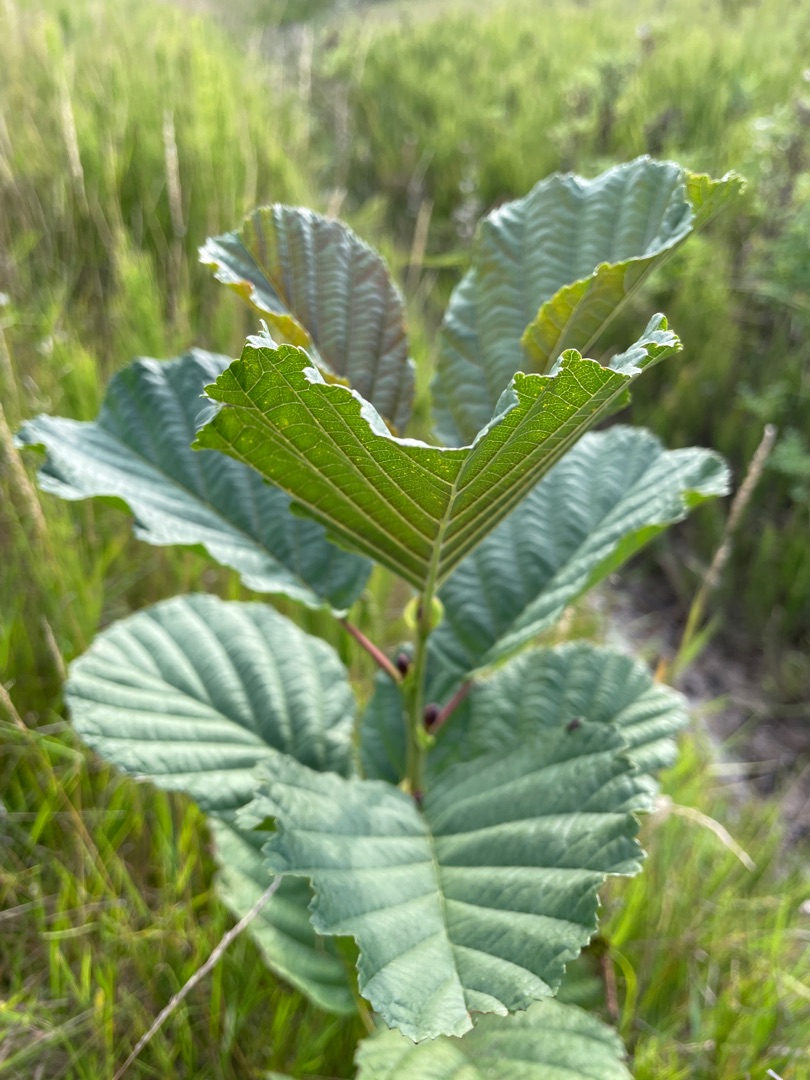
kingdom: Plantae
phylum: Tracheophyta
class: Magnoliopsida
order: Fagales
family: Betulaceae
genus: Alnus
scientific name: Alnus glutinosa
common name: Rød-el
